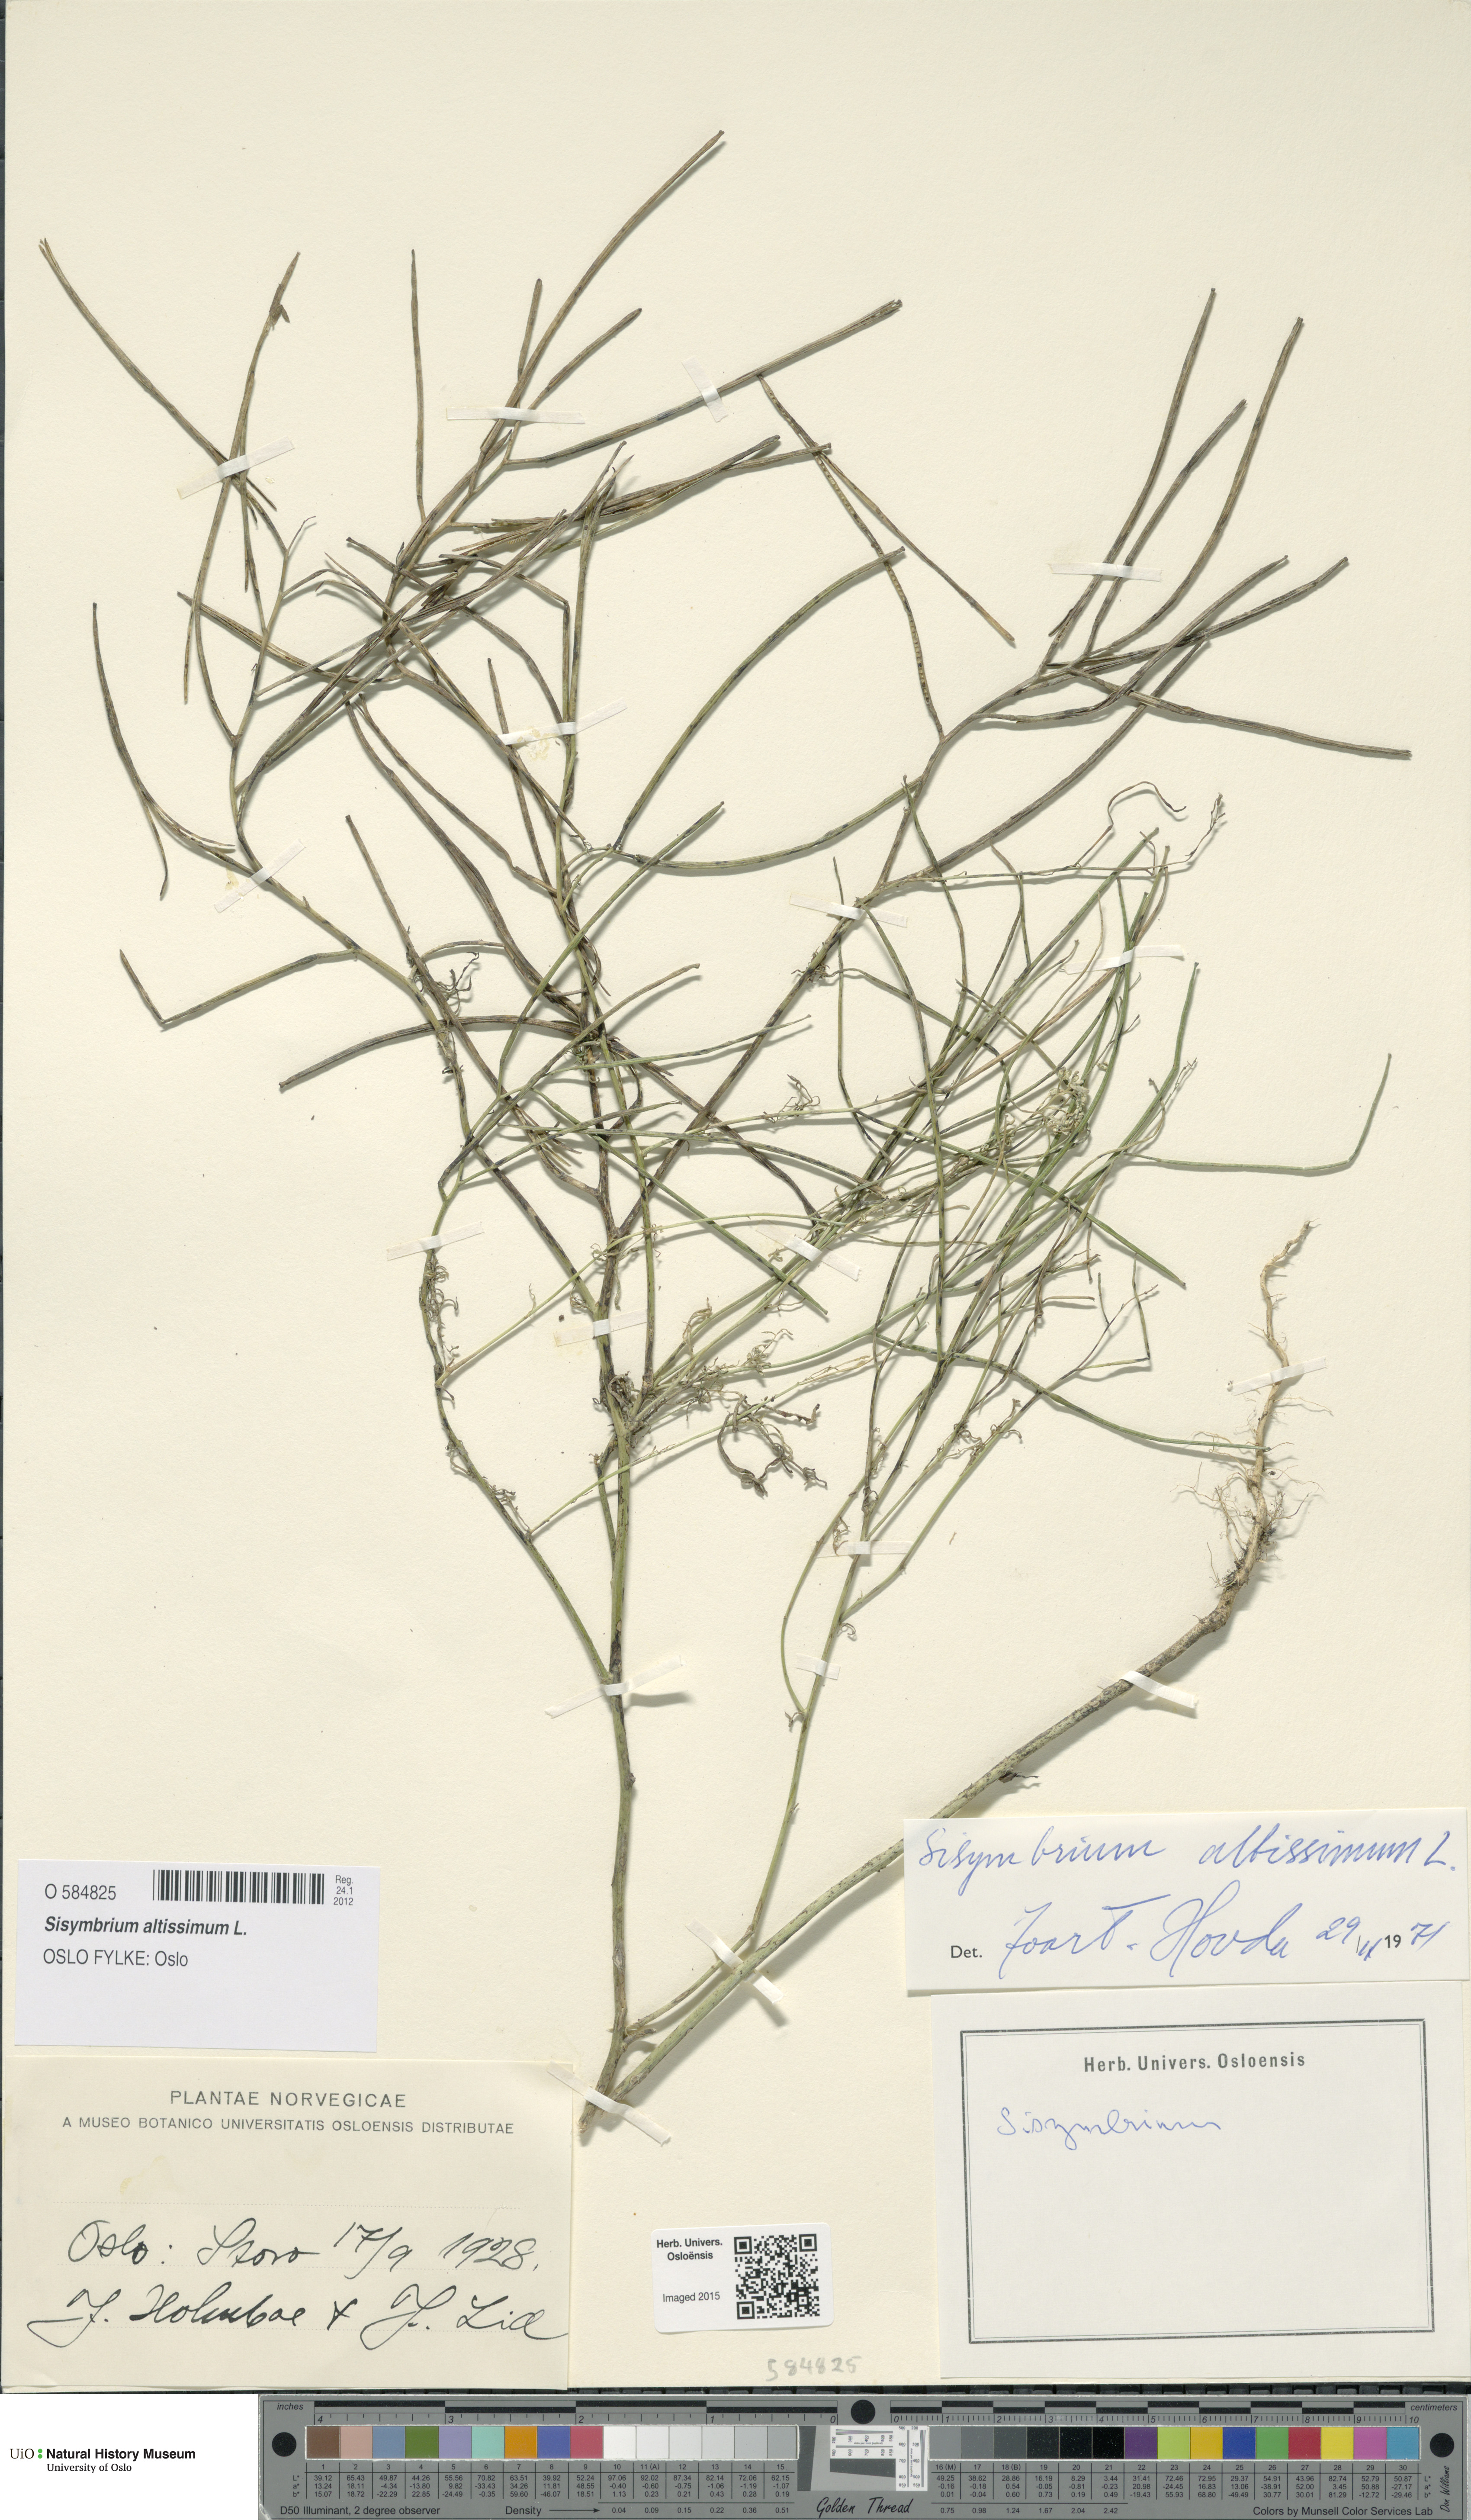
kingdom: Plantae
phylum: Tracheophyta
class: Magnoliopsida
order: Brassicales
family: Brassicaceae
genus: Sisymbrium
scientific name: Sisymbrium altissimum
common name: Tall rocket
